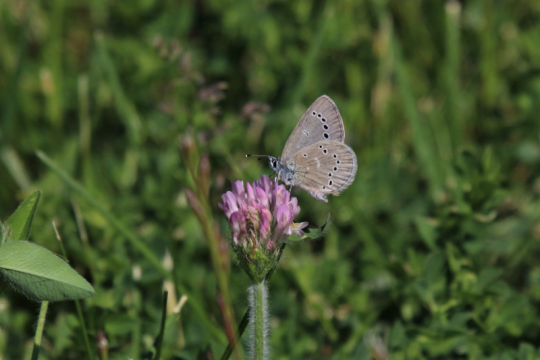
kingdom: Animalia
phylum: Arthropoda
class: Insecta
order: Lepidoptera
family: Lycaenidae
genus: Glaucopsyche
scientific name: Glaucopsyche lygdamus
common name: Silvery Blue
